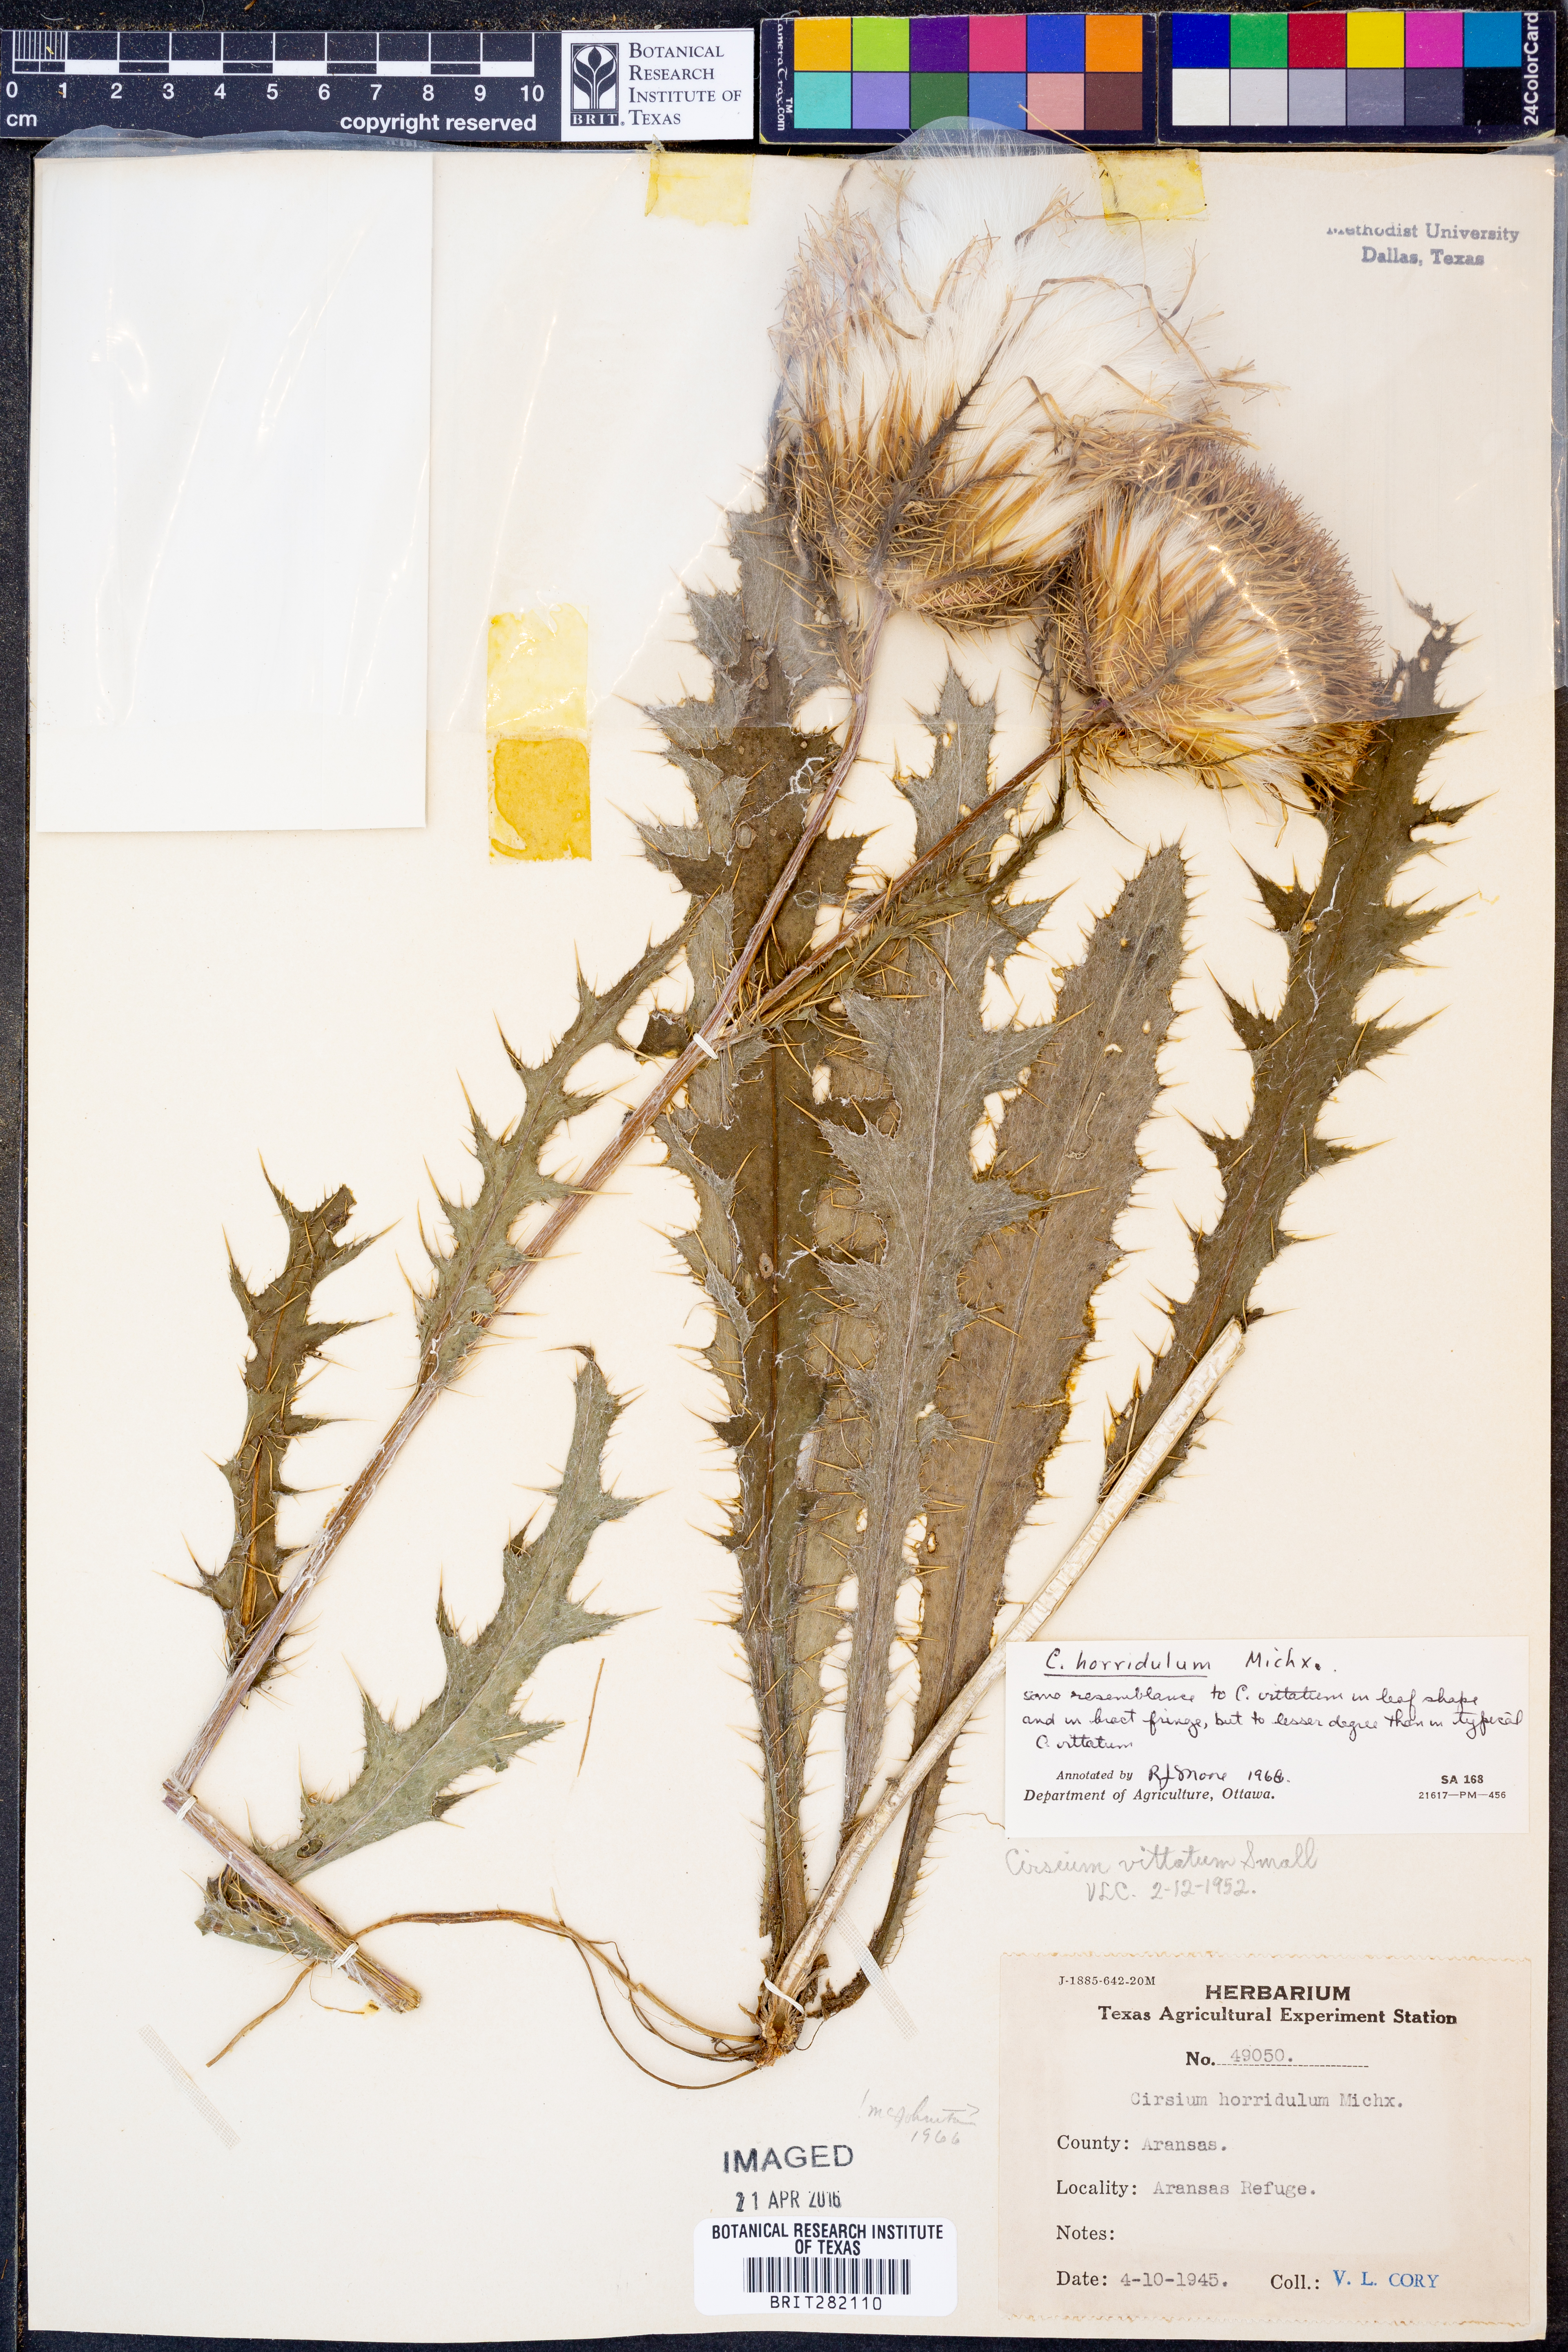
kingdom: Plantae
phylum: Tracheophyta
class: Magnoliopsida
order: Asterales
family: Asteraceae
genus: Cirsium
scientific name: Cirsium horridulum
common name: Bristly thistle
